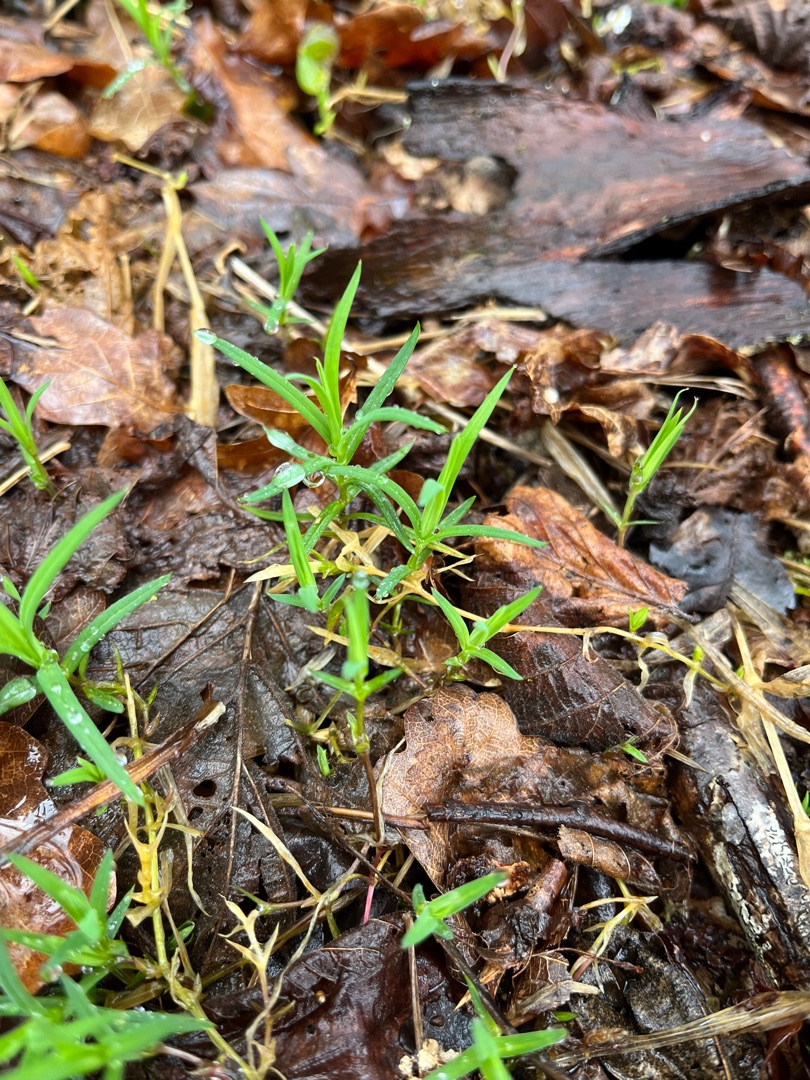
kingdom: Plantae
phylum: Tracheophyta
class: Magnoliopsida
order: Caryophyllales
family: Caryophyllaceae
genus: Rabelera
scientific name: Rabelera holostea
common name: Stor fladstjerne
